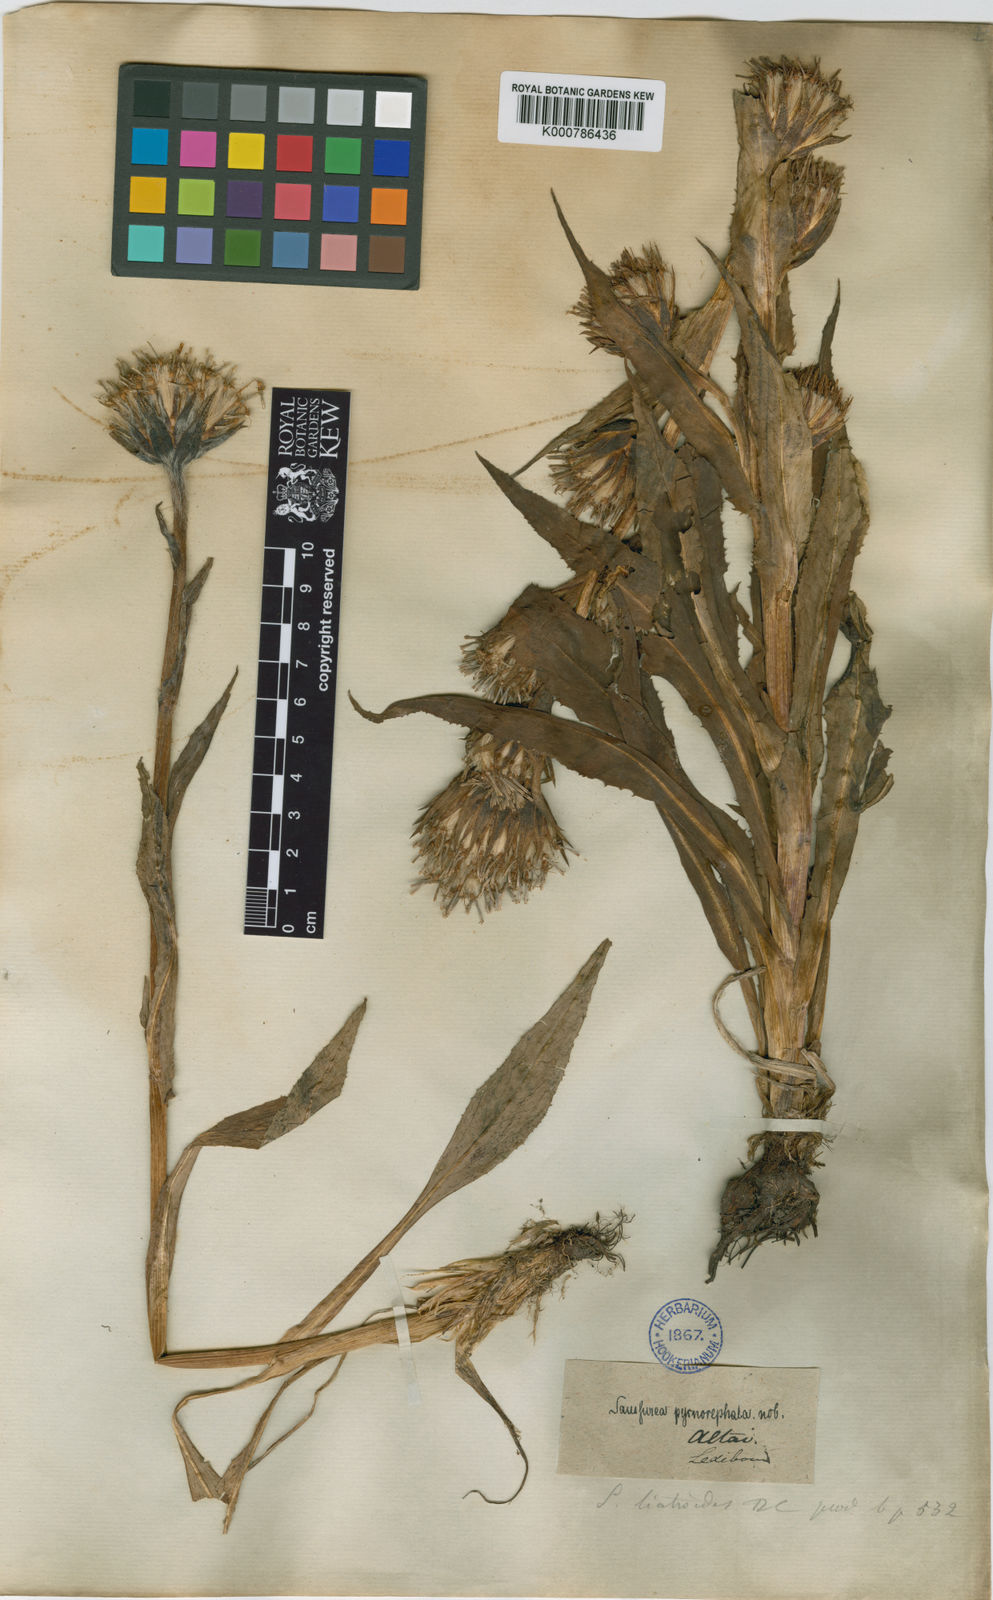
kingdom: Plantae
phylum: Tracheophyta
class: Magnoliopsida
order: Asterales
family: Asteraceae
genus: Saussurea
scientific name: Saussurea
